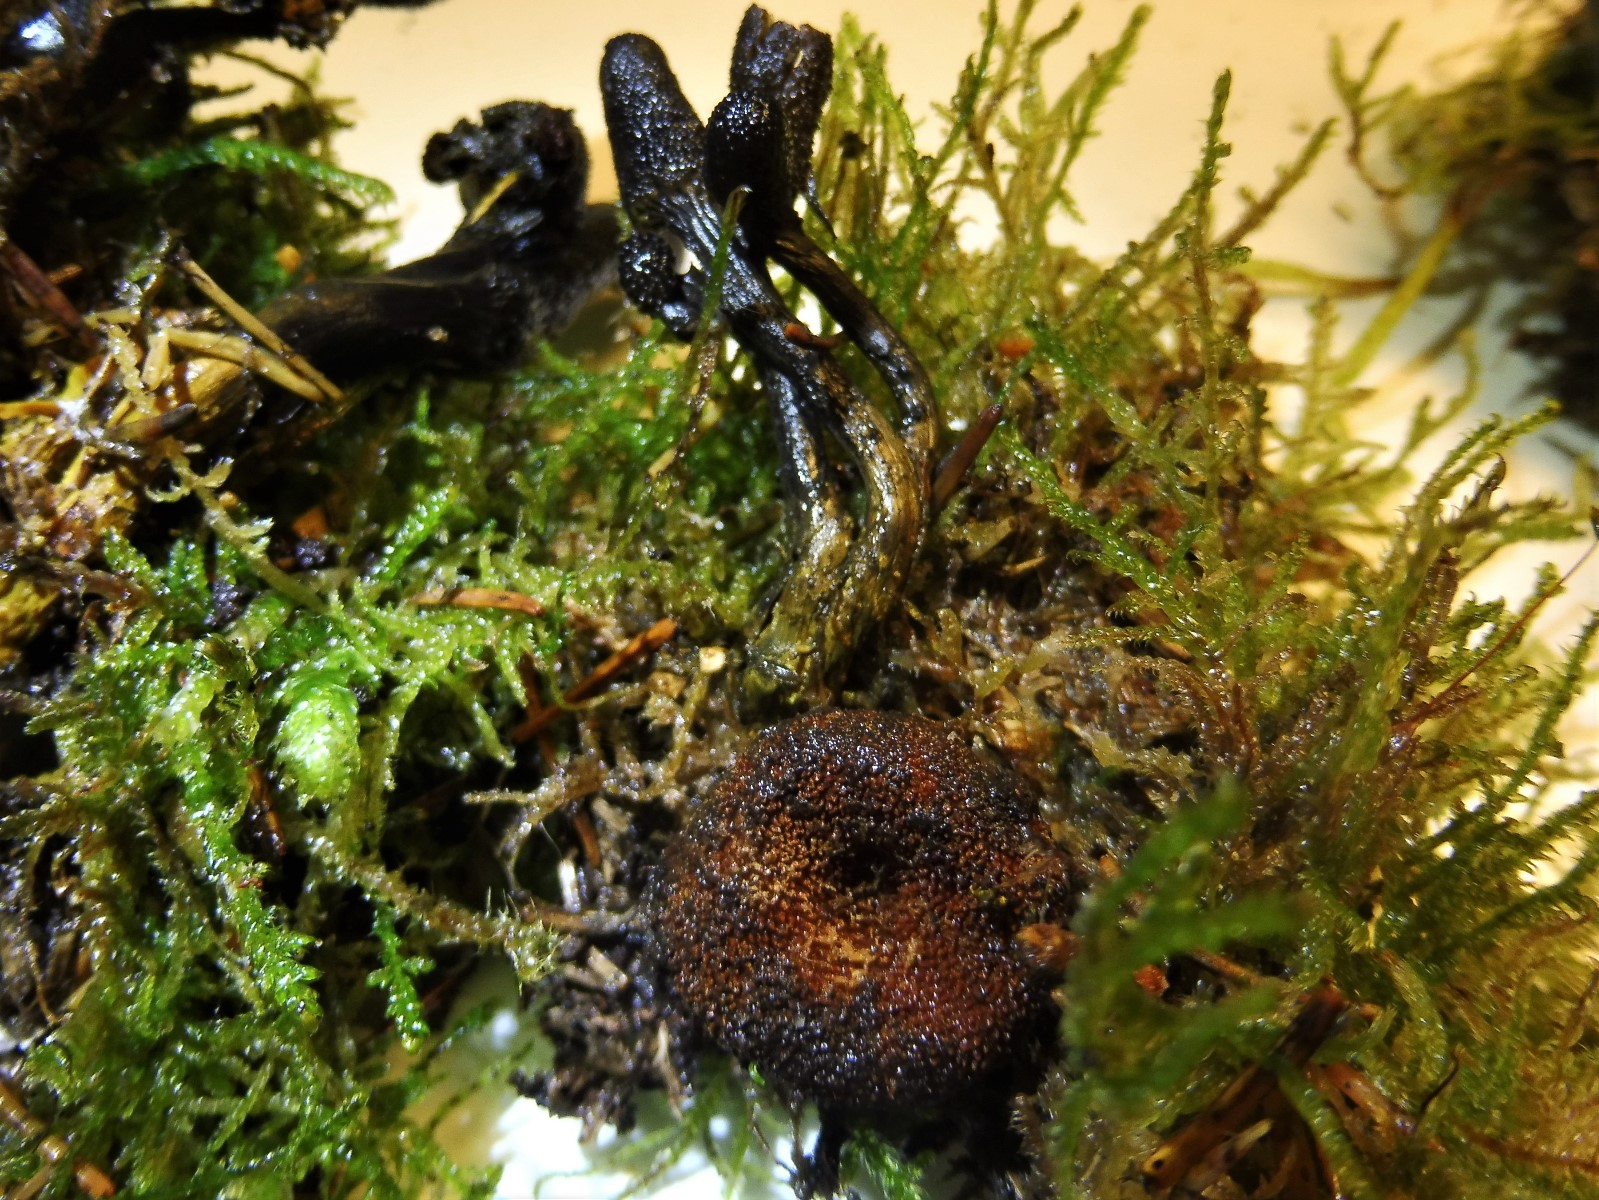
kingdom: Fungi
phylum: Ascomycota
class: Sordariomycetes
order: Hypocreales
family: Ophiocordycipitaceae
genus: Tolypocladium
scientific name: Tolypocladium ophioglossoides
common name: slank snyltekølle
